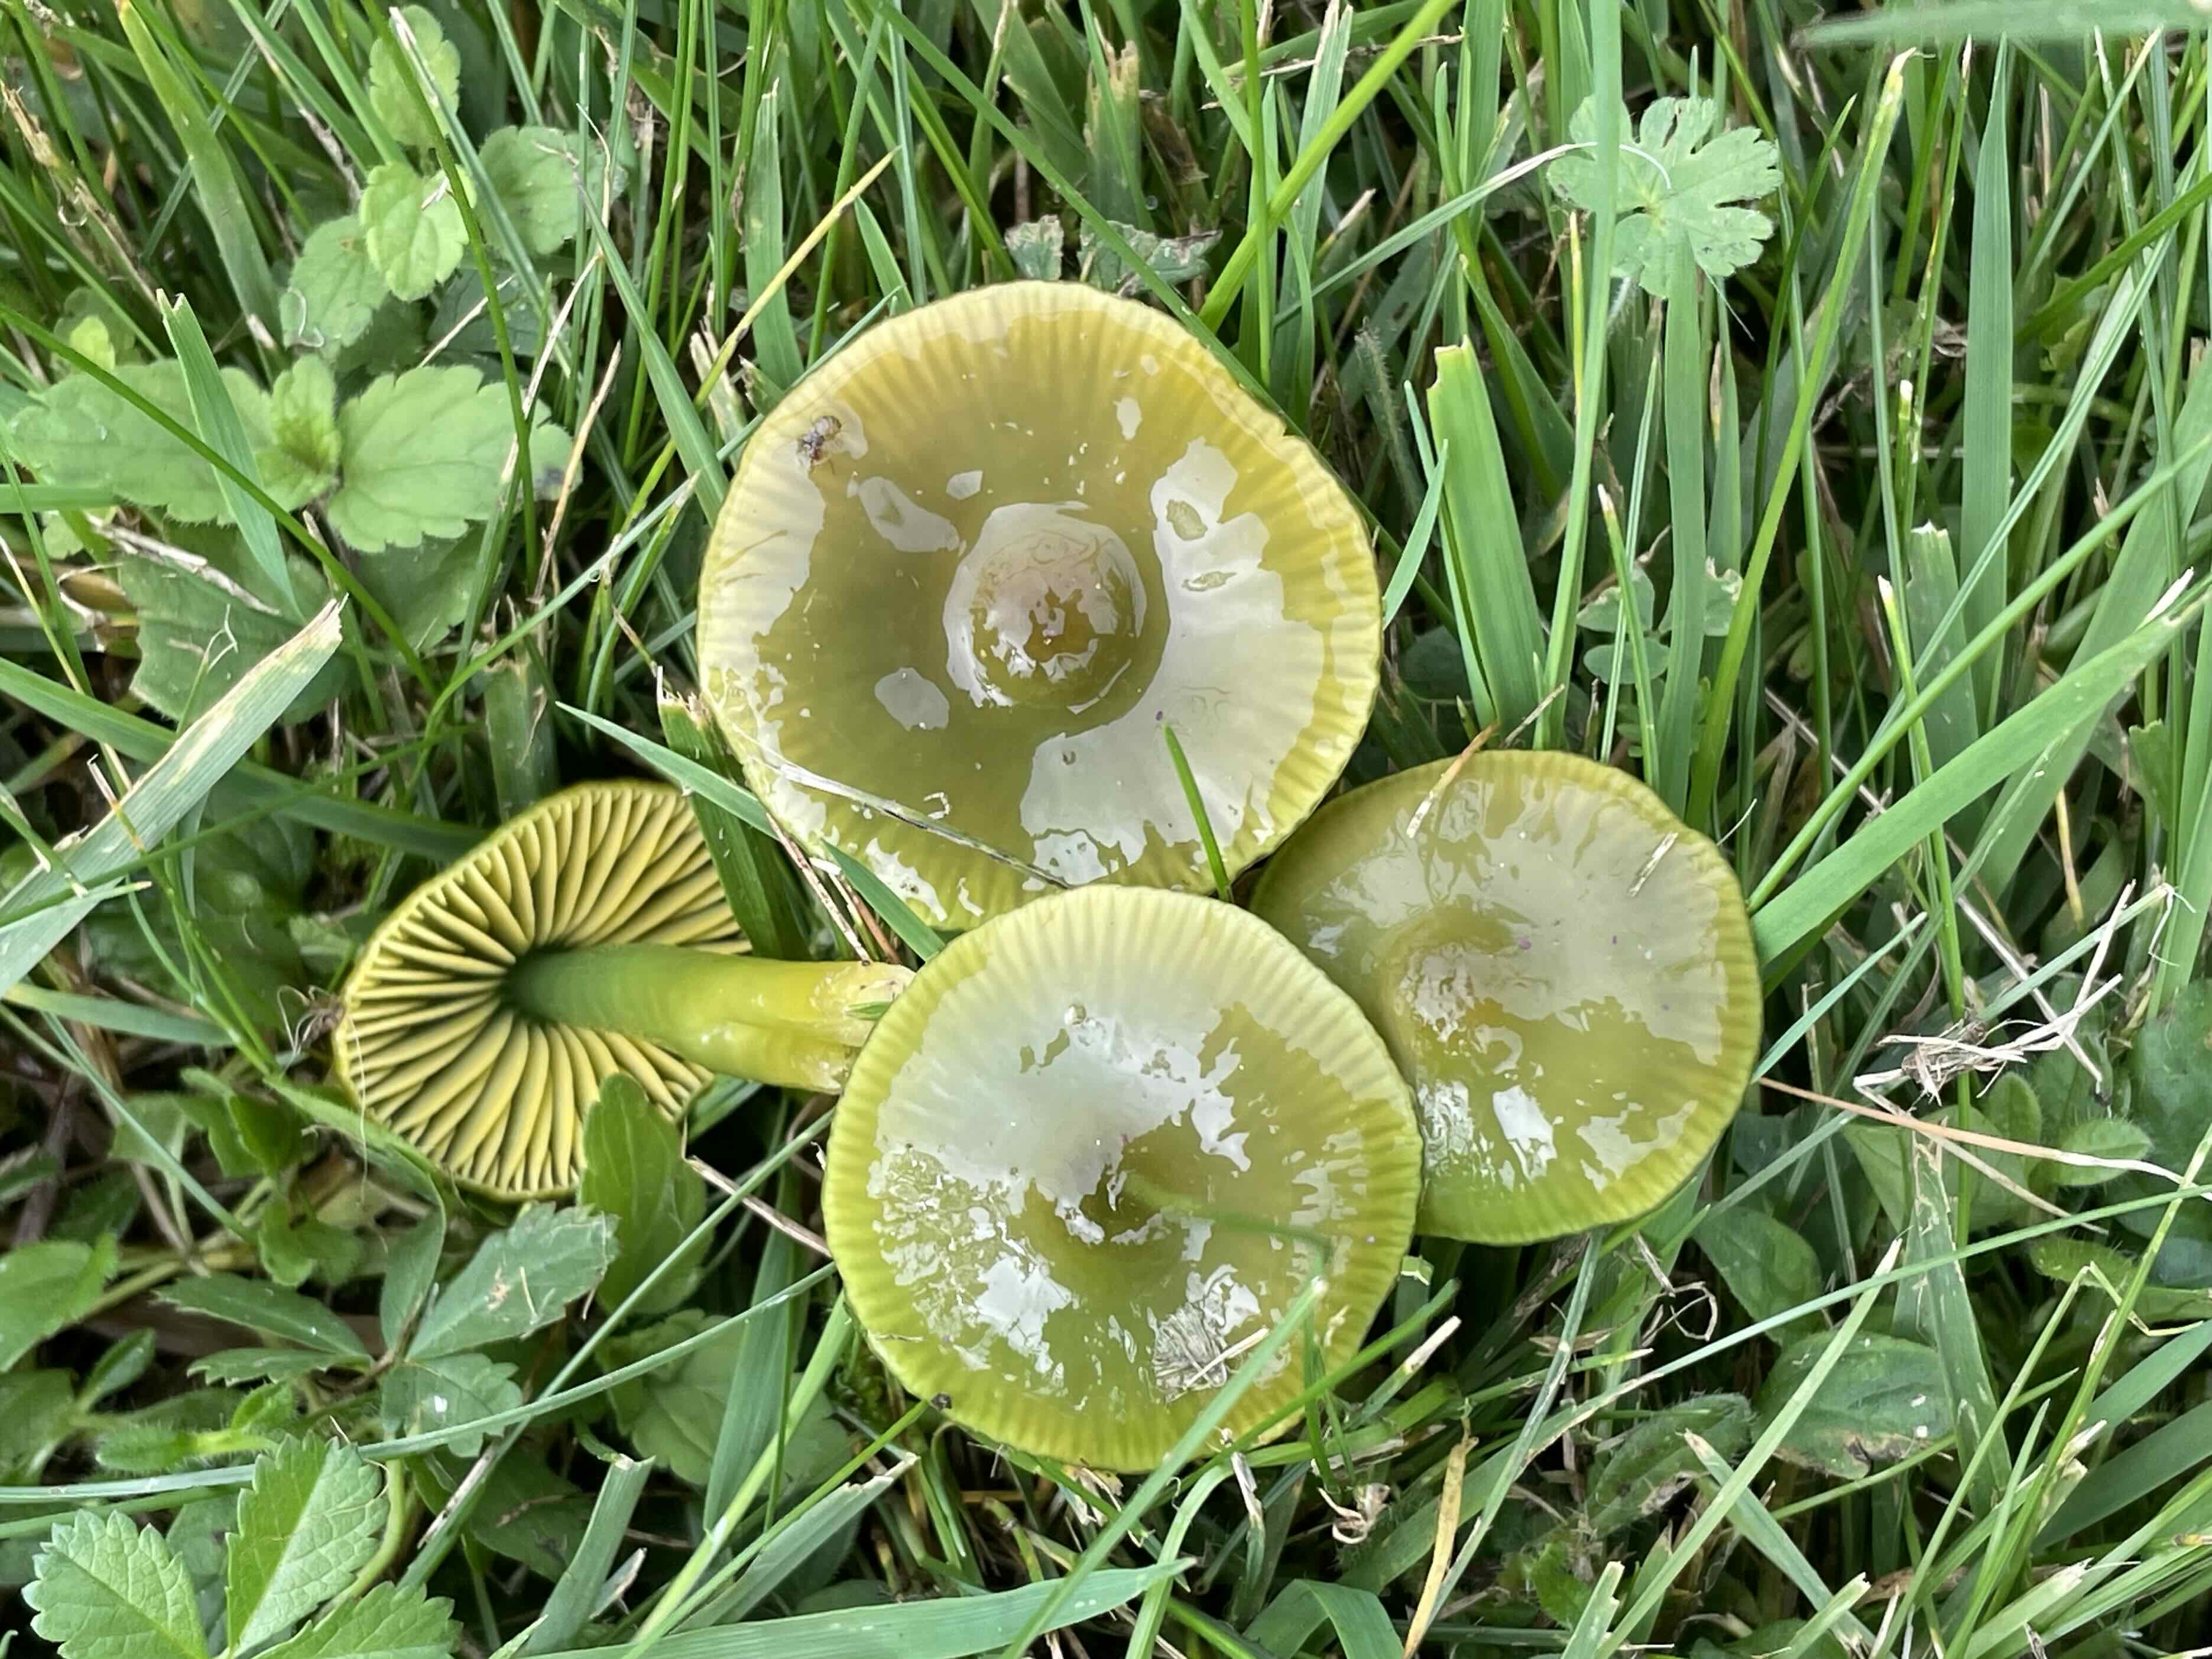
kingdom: Fungi
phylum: Basidiomycota
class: Agaricomycetes
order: Agaricales
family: Hygrophoraceae
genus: Gliophorus
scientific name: Gliophorus psittacinus
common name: papegøje-vokshat
